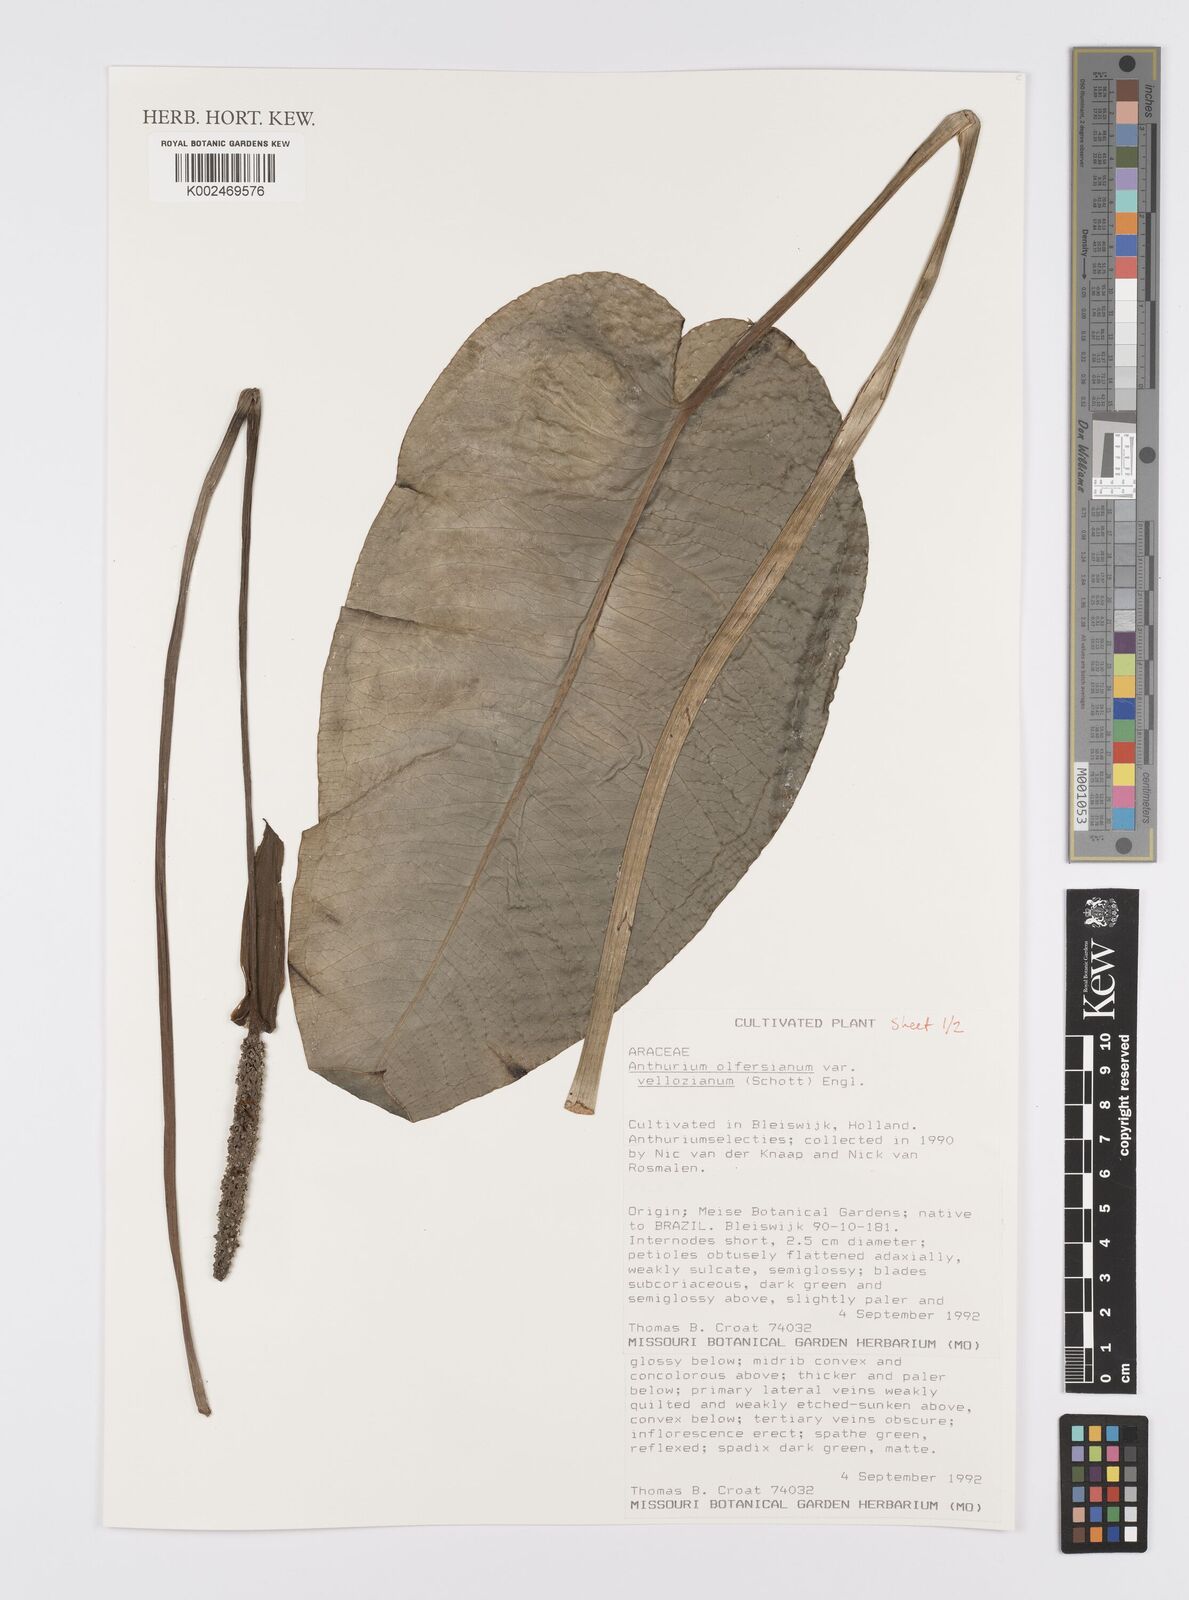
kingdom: Plantae
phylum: Tracheophyta
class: Liliopsida
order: Alismatales
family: Araceae
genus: Anthurium
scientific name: Anthurium parasiticum
